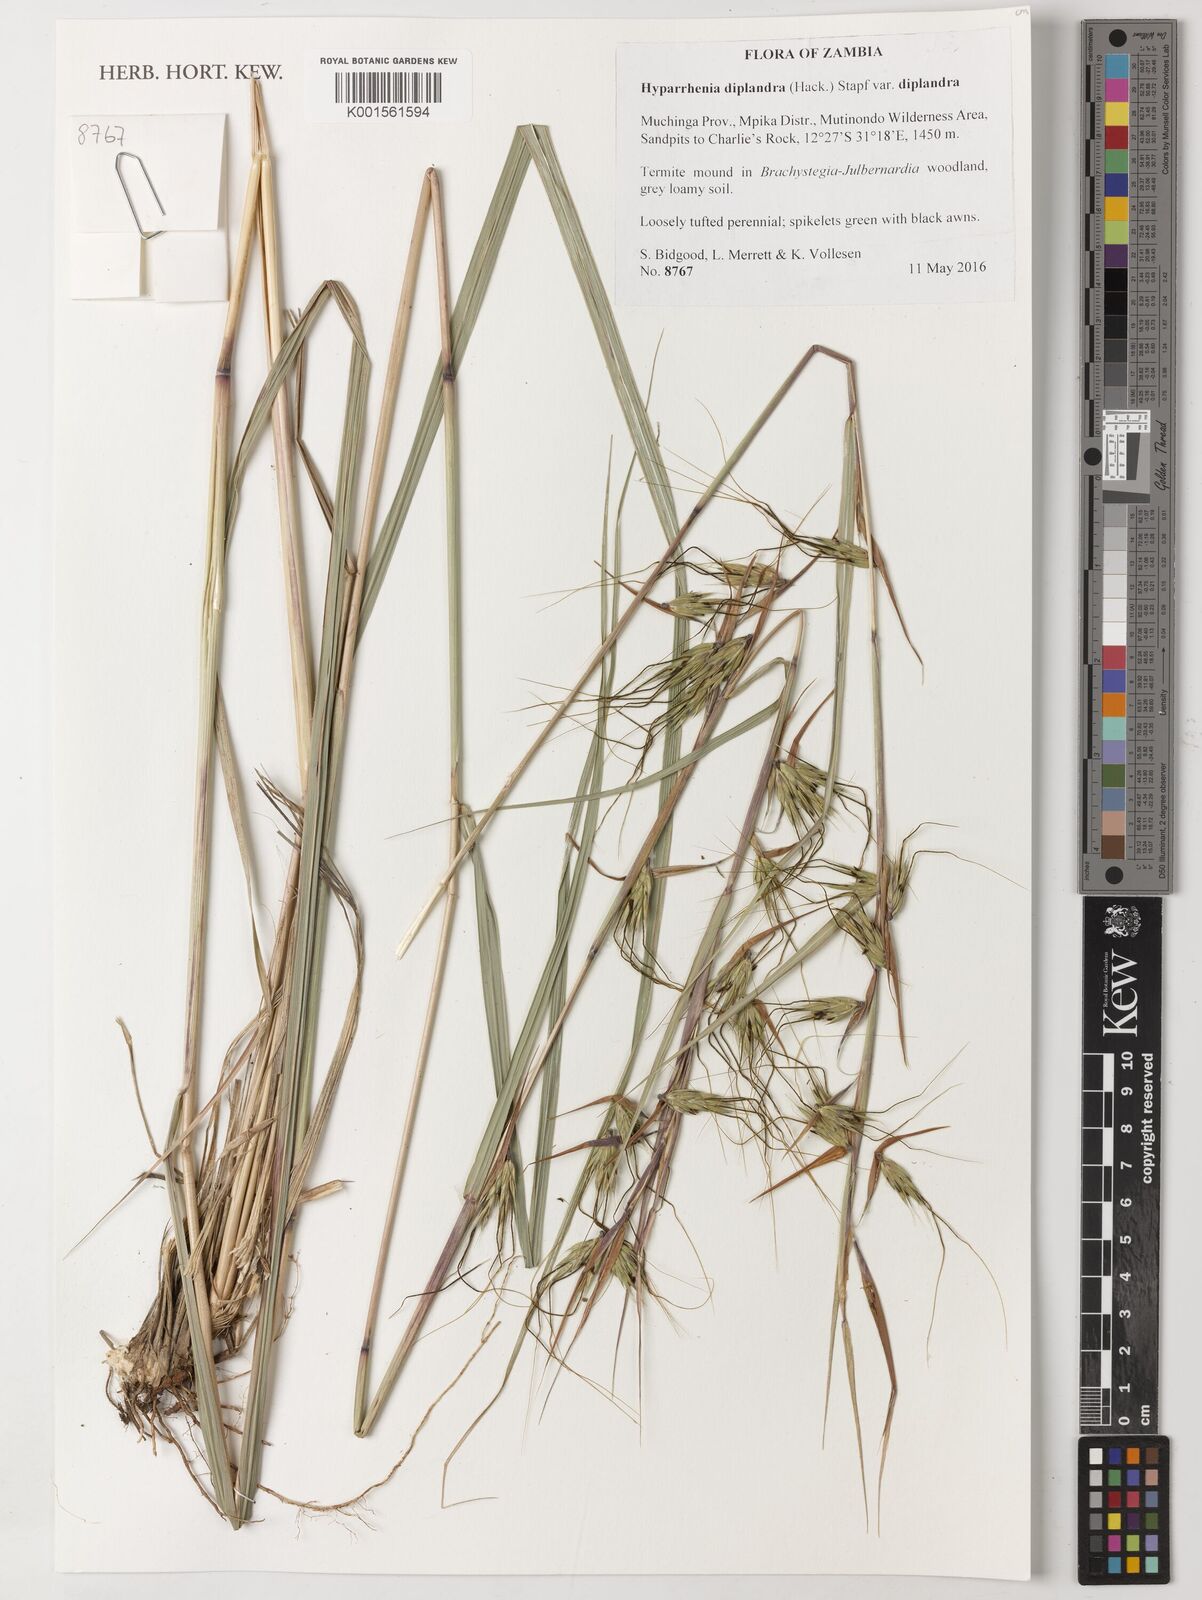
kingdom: Plantae
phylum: Tracheophyta
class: Liliopsida
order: Poales
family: Poaceae
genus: Hyparrhenia
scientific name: Hyparrhenia diplandra
